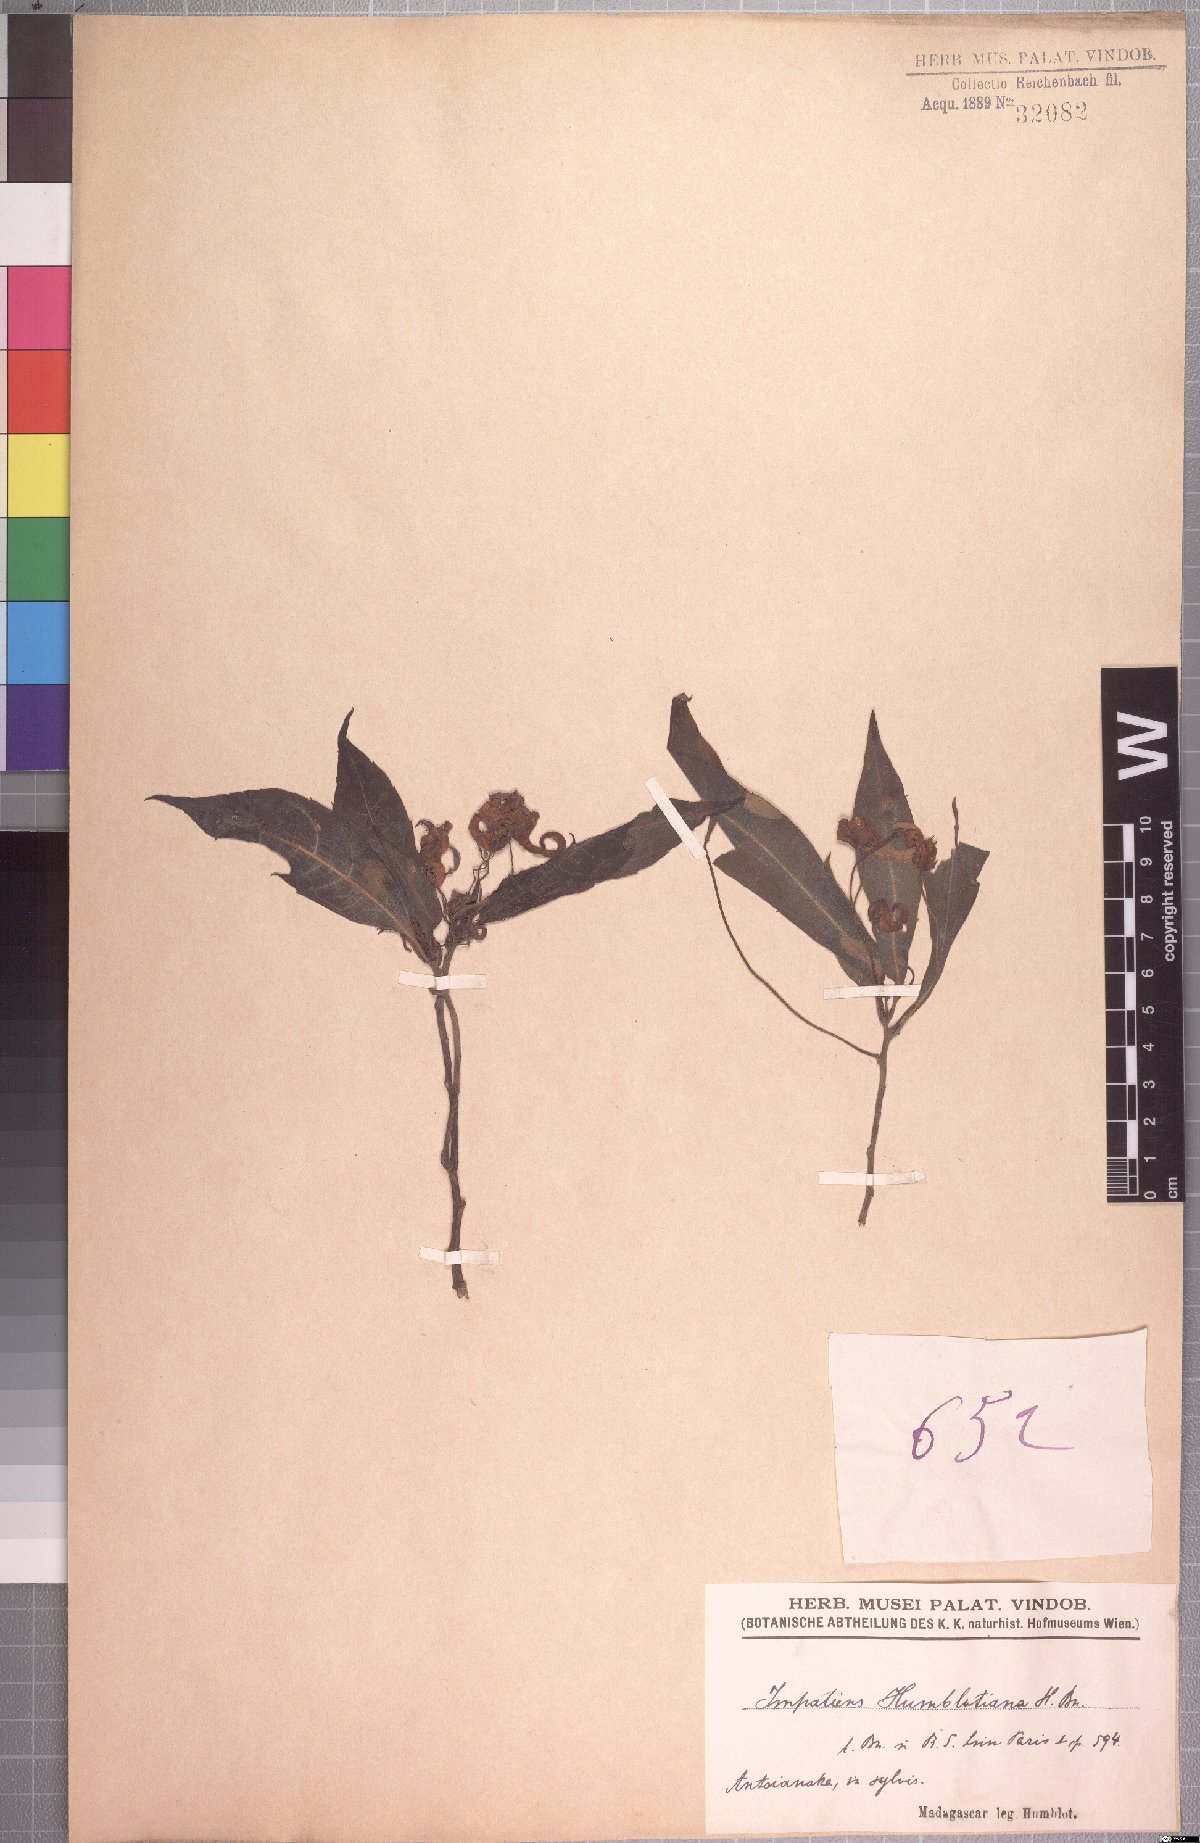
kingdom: Plantae
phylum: Tracheophyta
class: Magnoliopsida
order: Ericales
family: Balsaminaceae
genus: Impatiens
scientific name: Impatiens humblotiana
